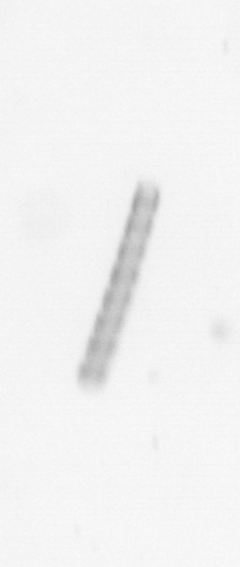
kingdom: Chromista
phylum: Ochrophyta
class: Bacillariophyceae
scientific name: Bacillariophyceae
